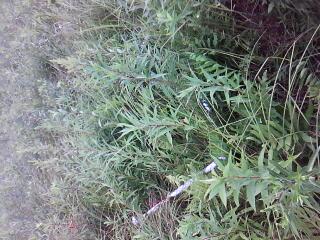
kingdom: Plantae
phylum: Tracheophyta
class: Polypodiopsida
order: Polypodiales
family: Onocleaceae
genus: Onoclea
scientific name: Onoclea sensibilis
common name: Sensitive fern
